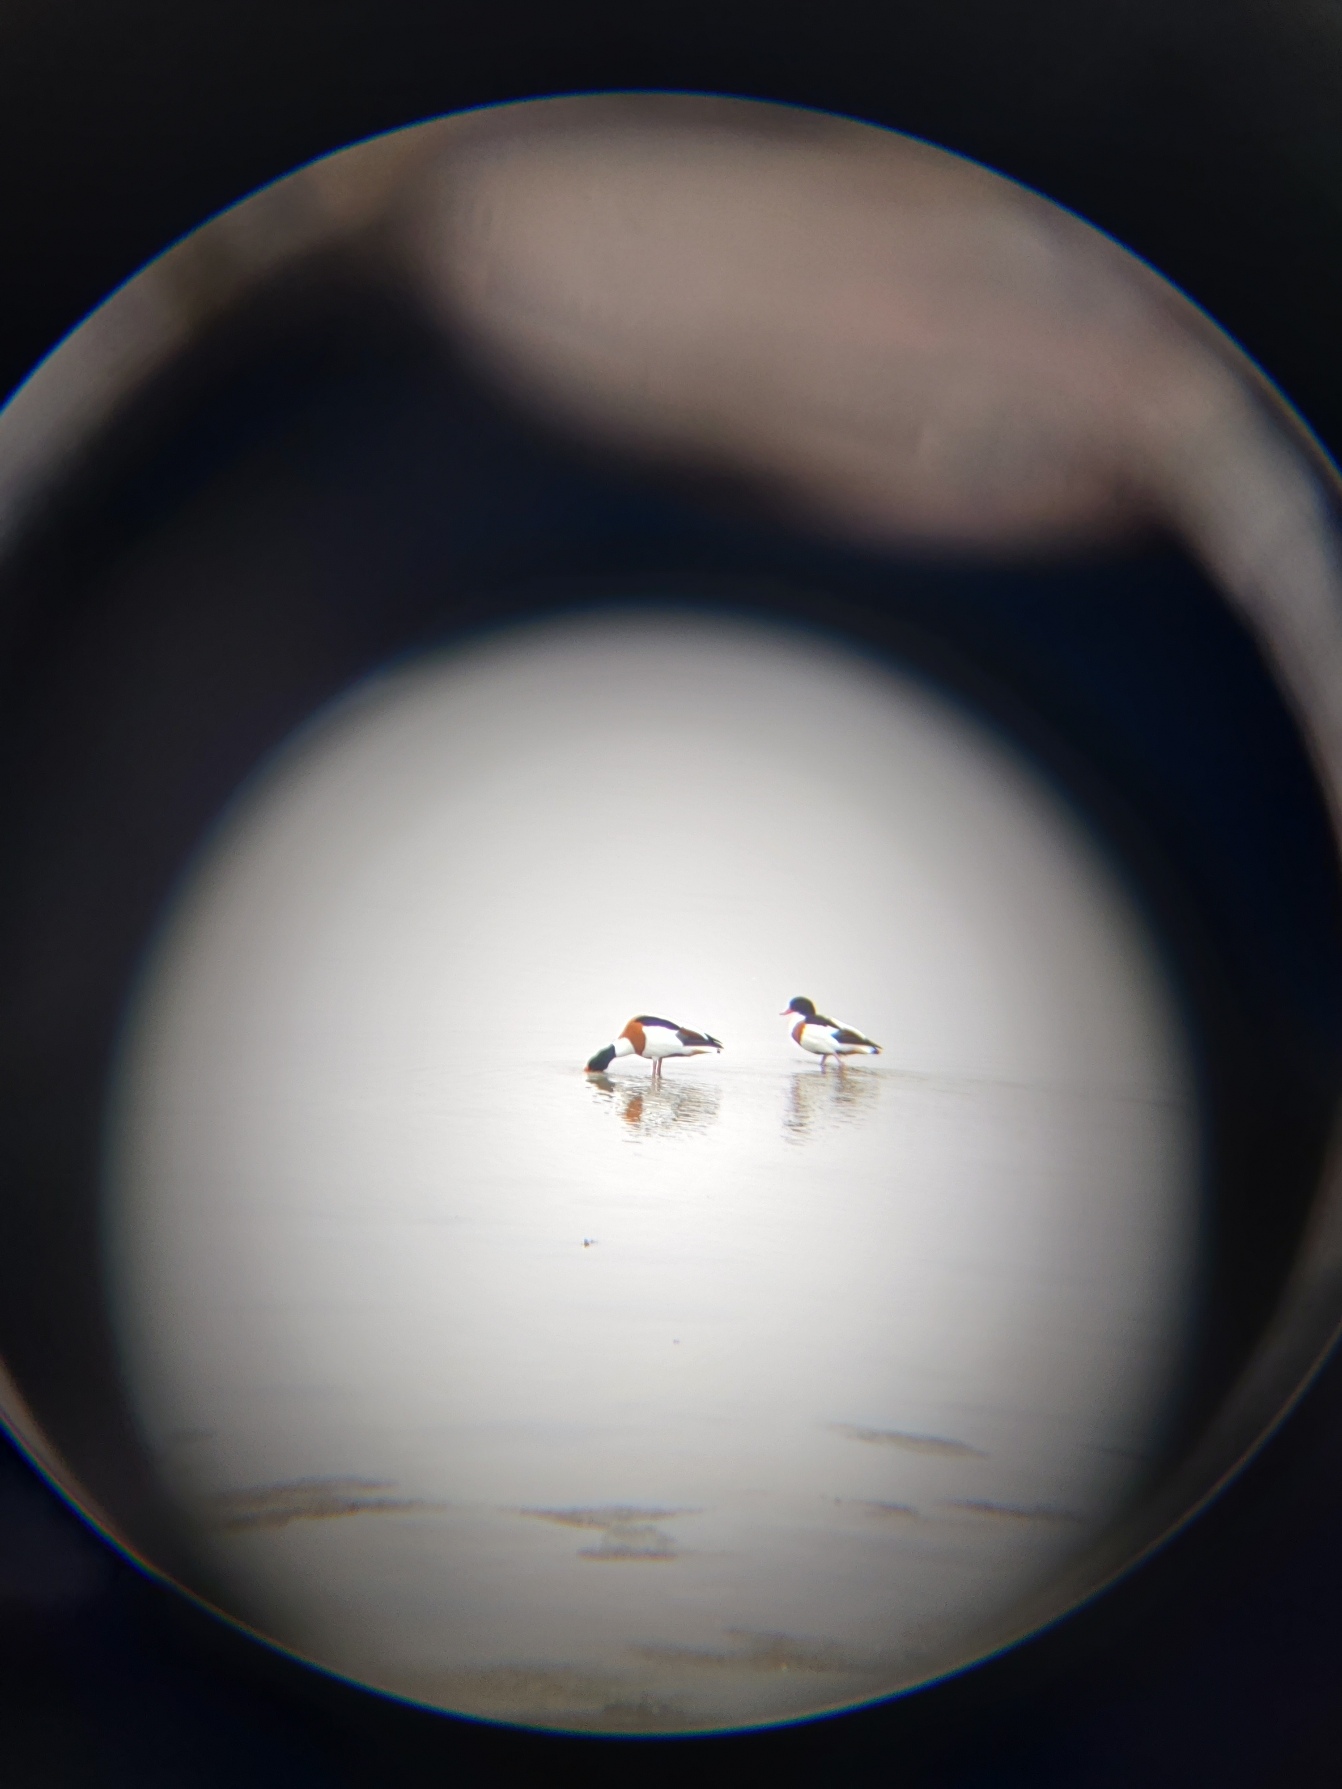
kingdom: Animalia
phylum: Chordata
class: Aves
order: Anseriformes
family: Anatidae
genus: Tadorna
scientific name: Tadorna tadorna
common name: Gravand
